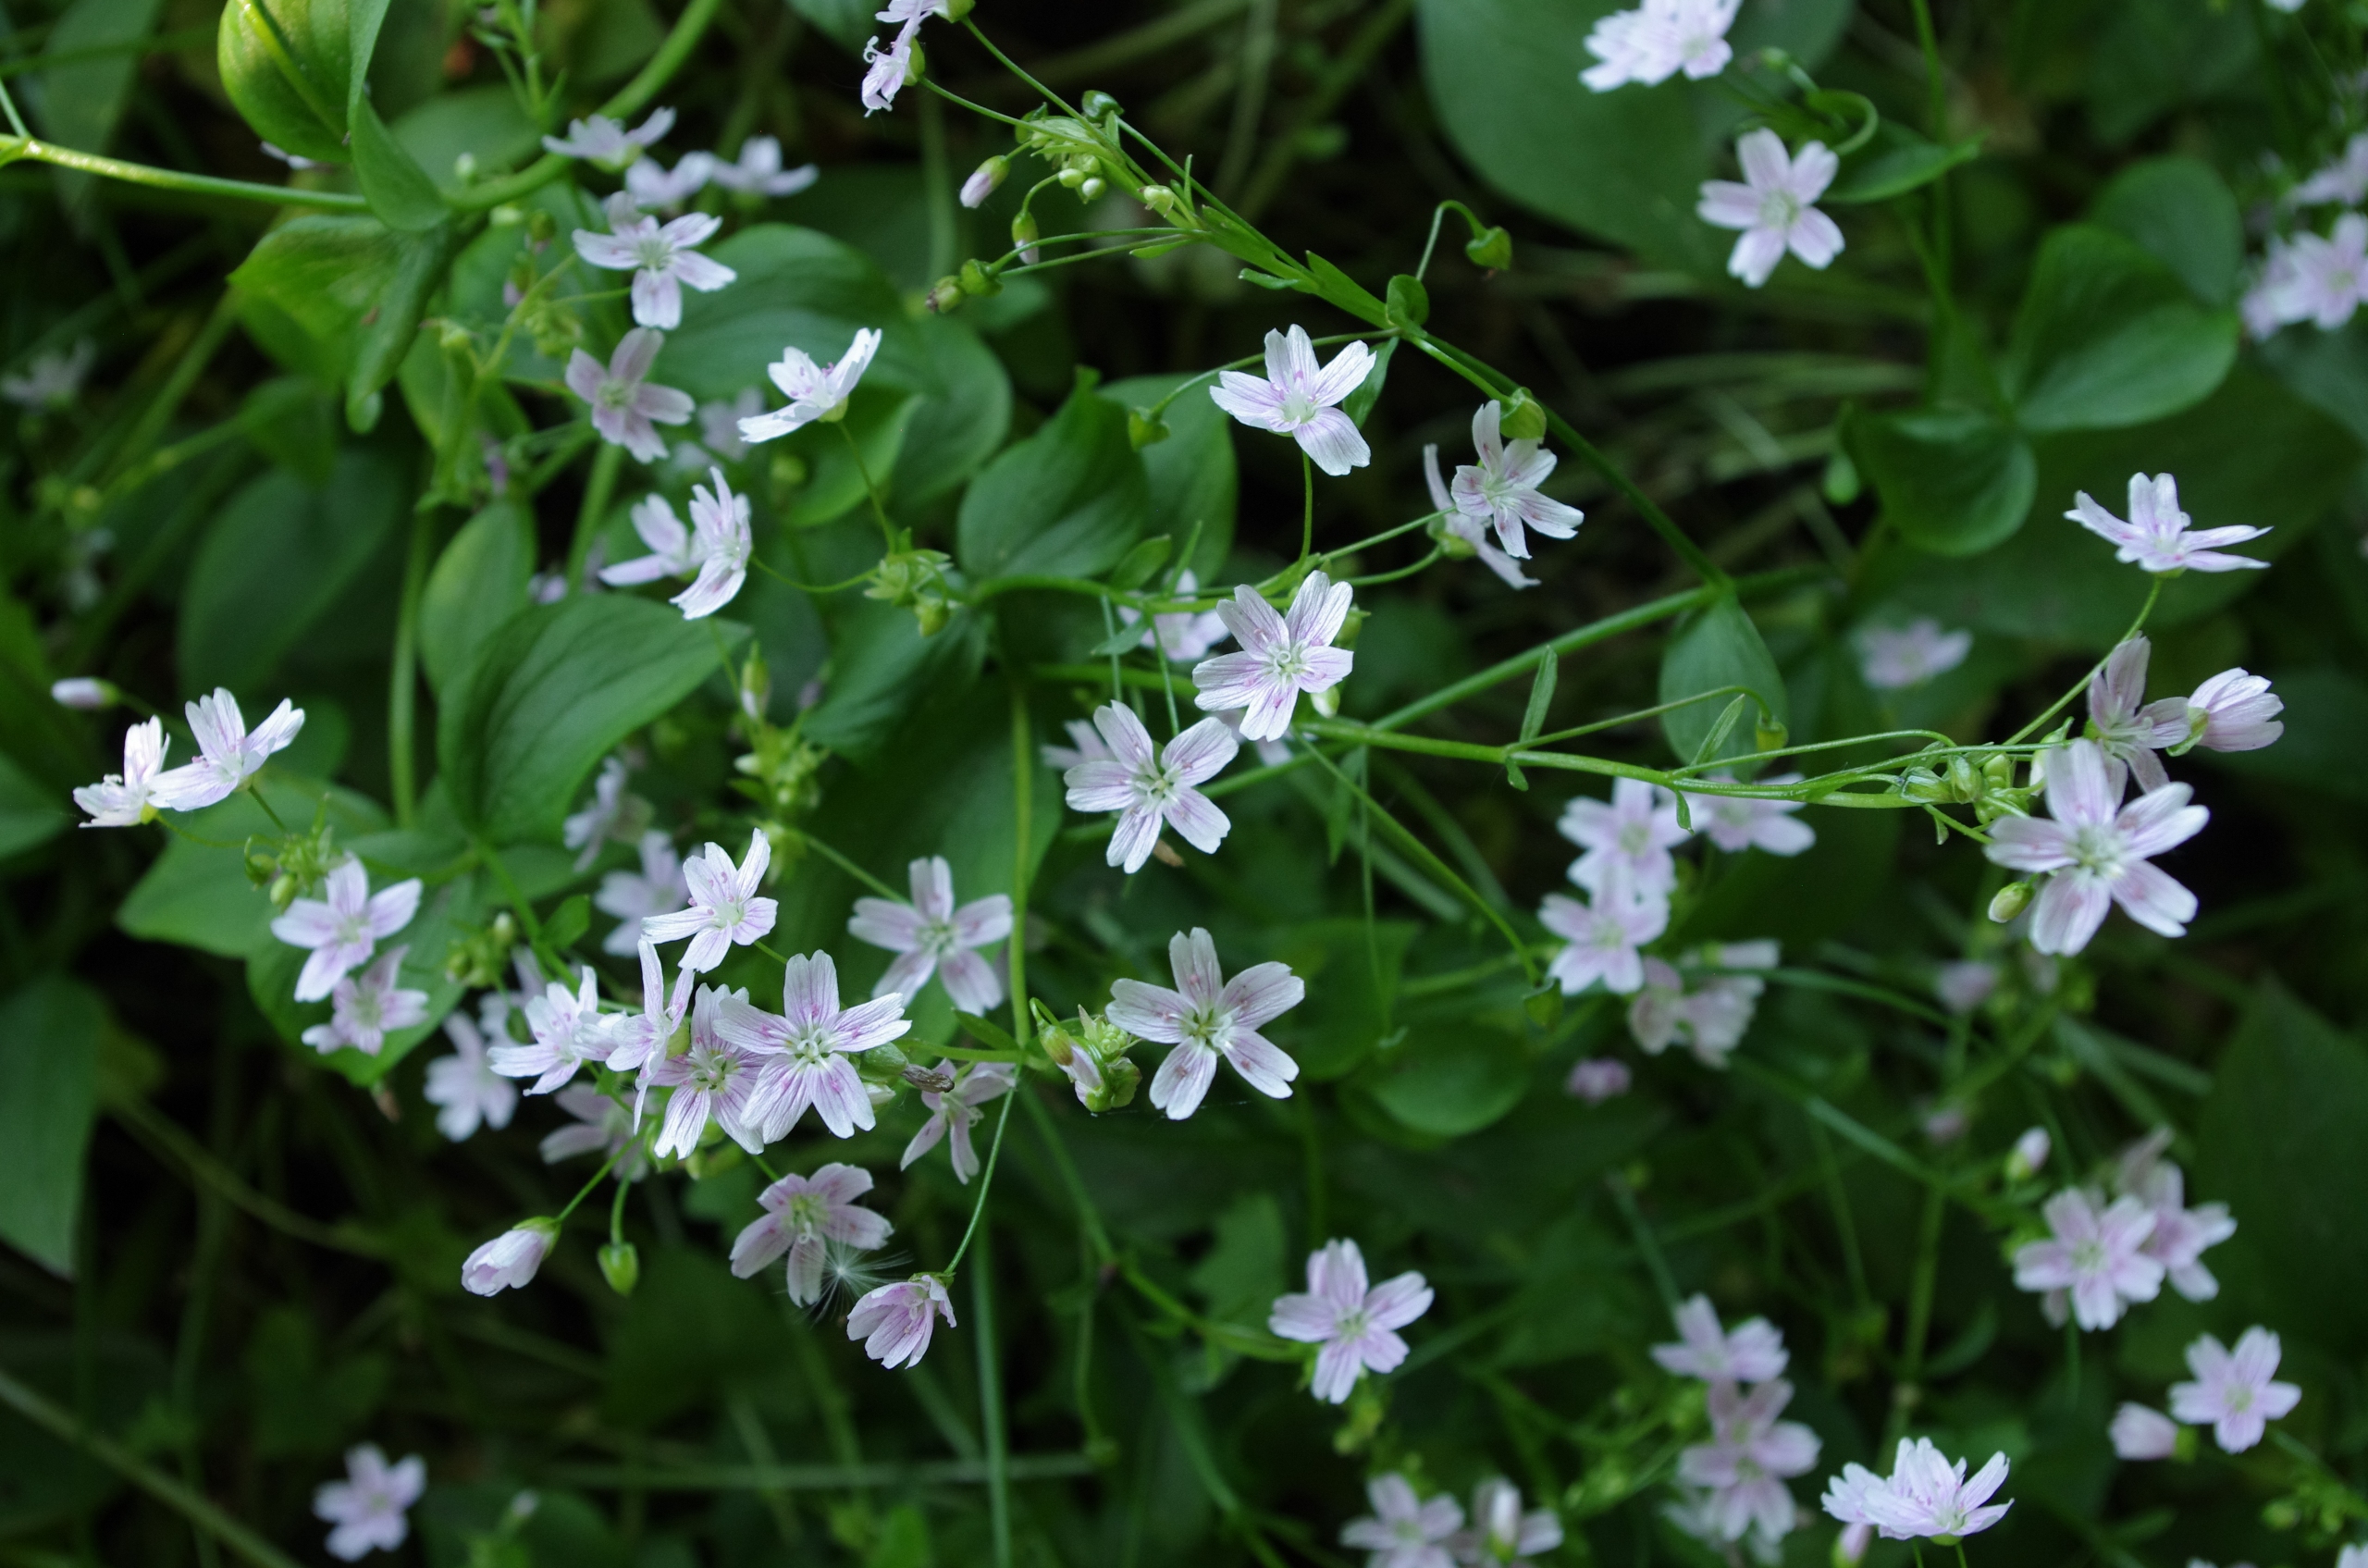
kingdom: Plantae
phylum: Tracheophyta
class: Magnoliopsida
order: Caryophyllales
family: Montiaceae
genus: Claytonia
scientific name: Claytonia sibirica
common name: Sibirisk vinterportulak
